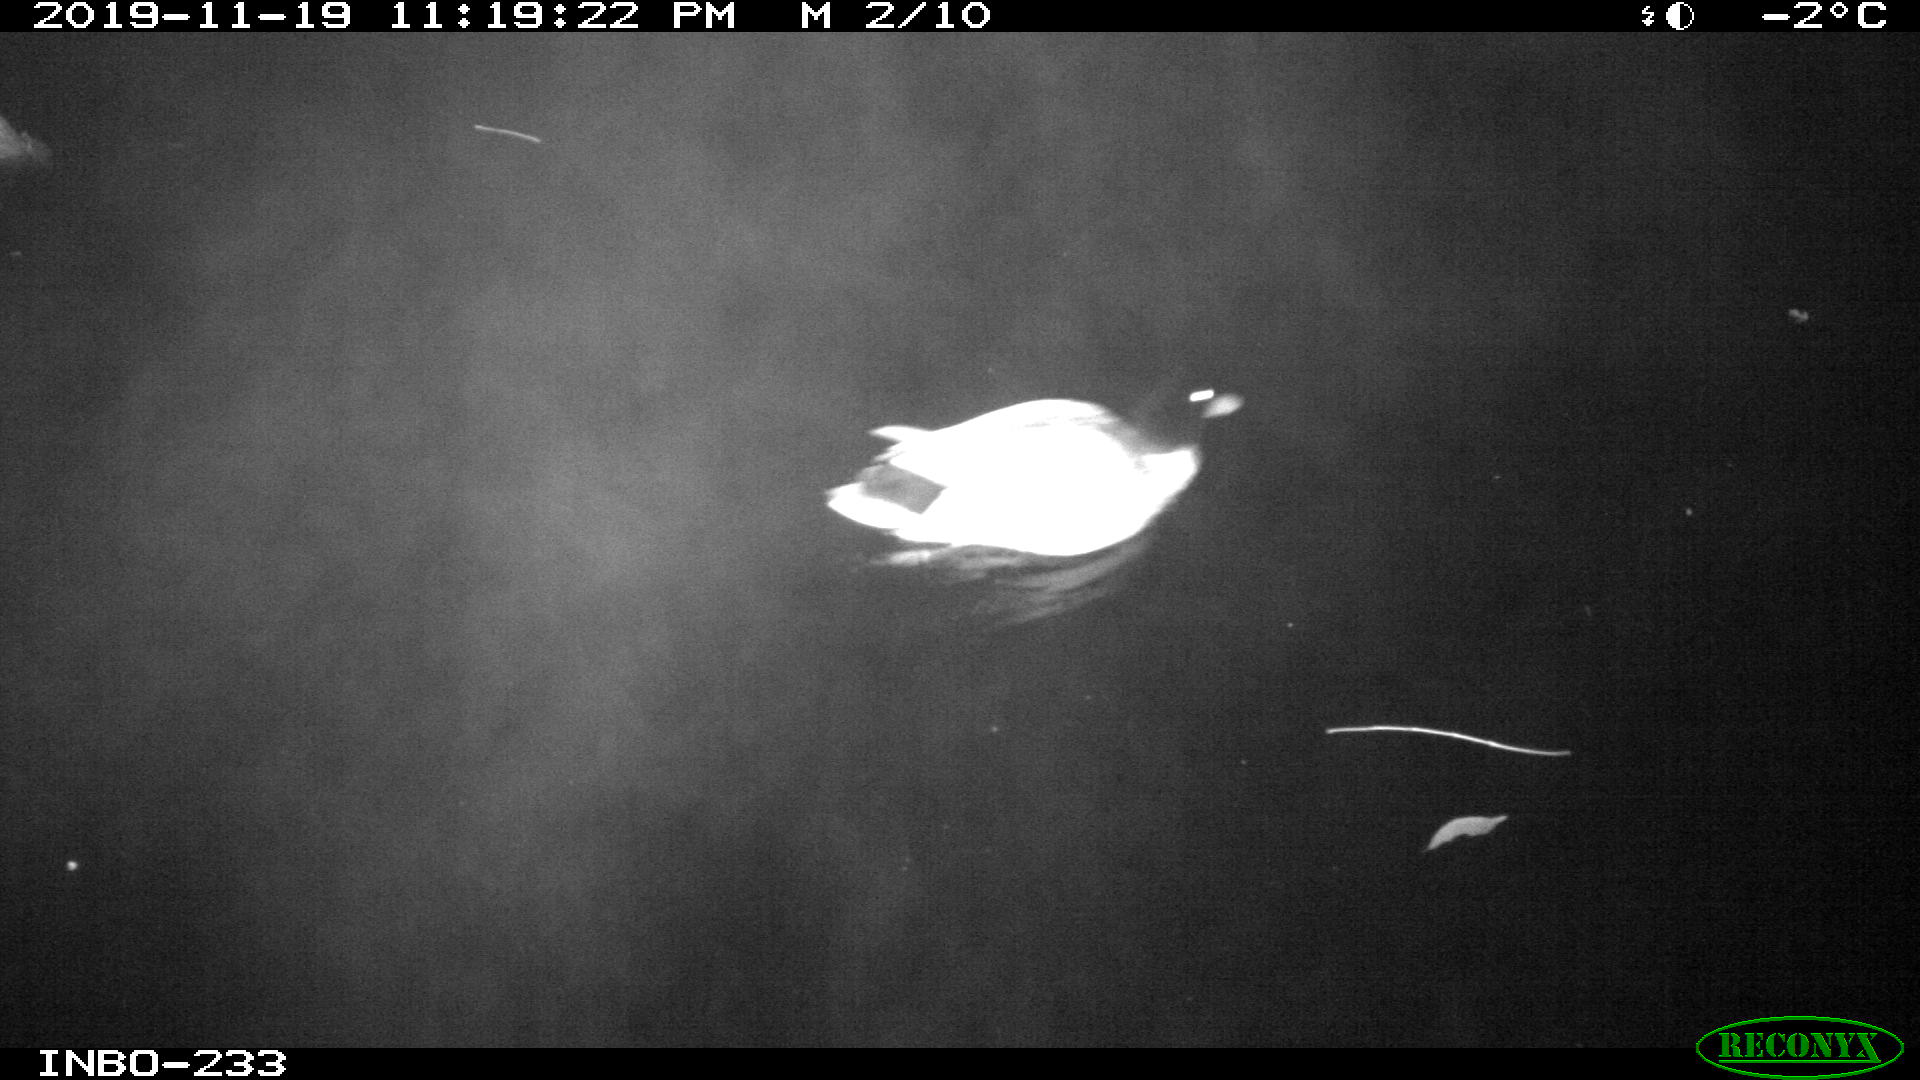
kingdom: Animalia
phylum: Chordata
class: Aves
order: Anseriformes
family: Anatidae
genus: Anas
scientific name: Anas platyrhynchos
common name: Mallard
